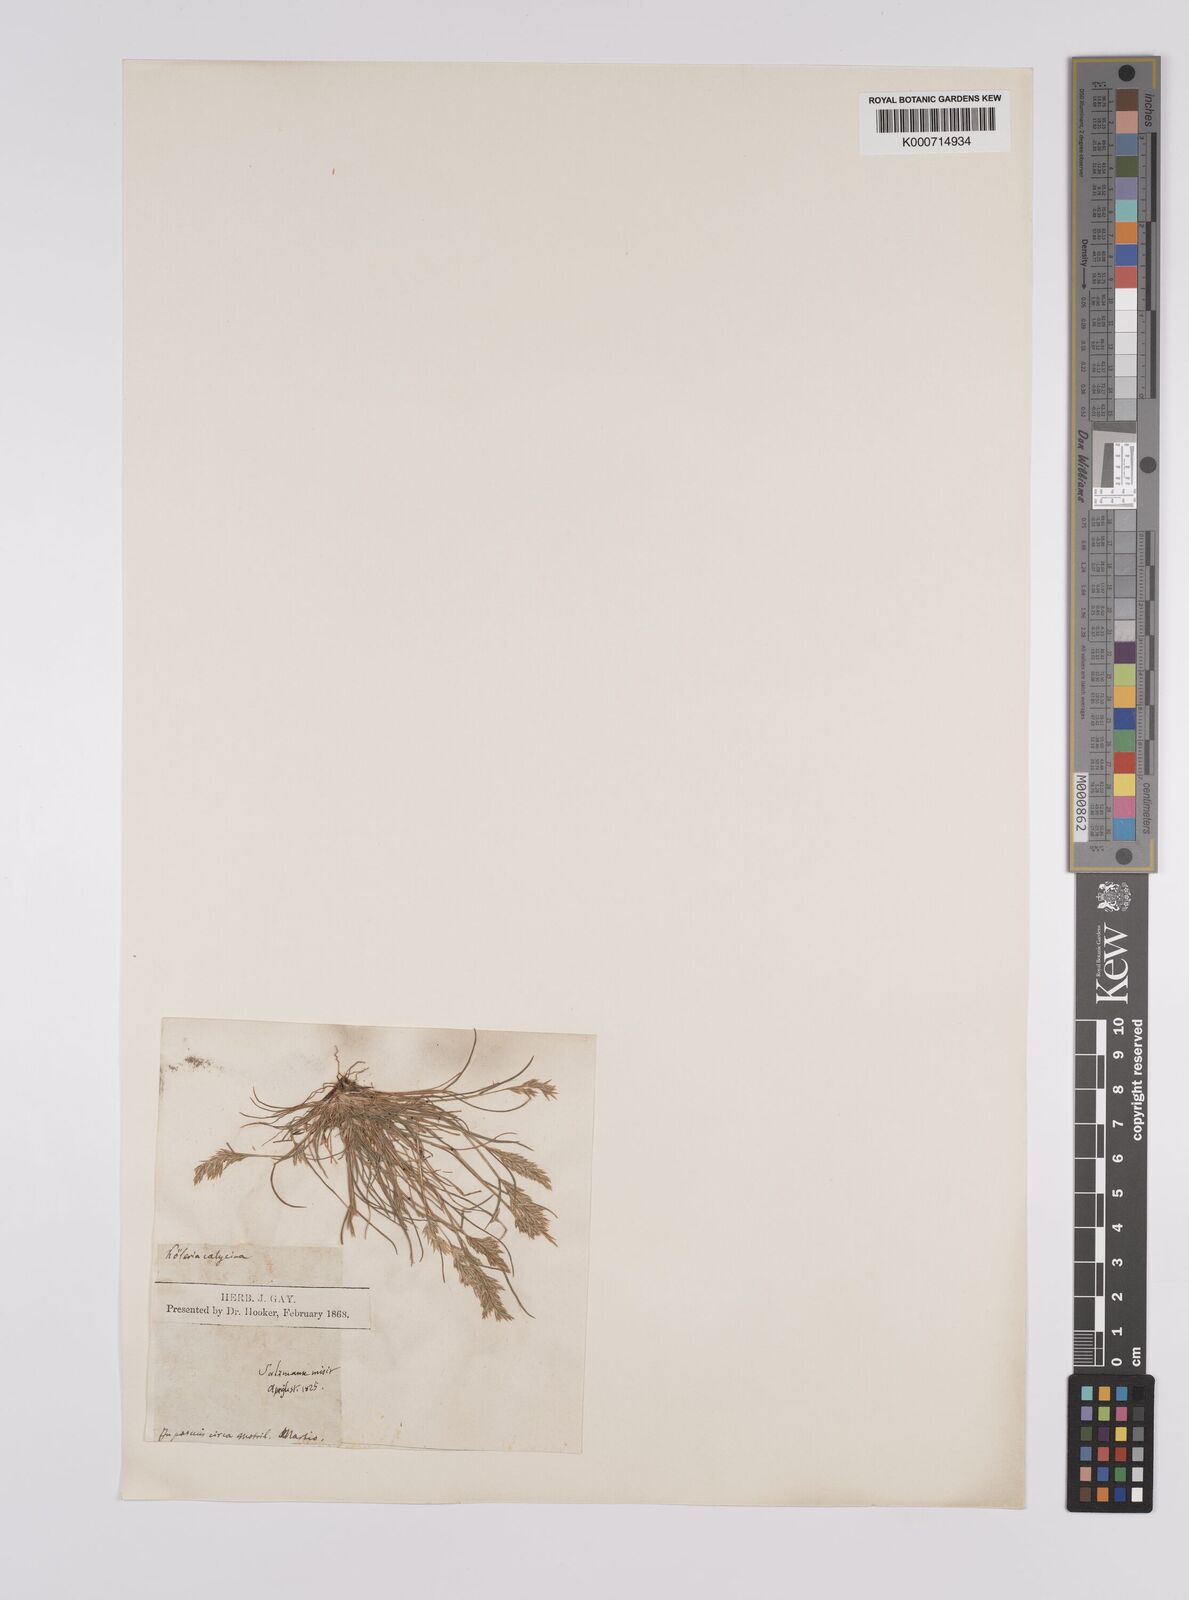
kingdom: Plantae
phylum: Tracheophyta
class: Liliopsida
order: Poales
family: Poaceae
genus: Schismus
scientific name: Schismus barbatus
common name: Kelch-grass
